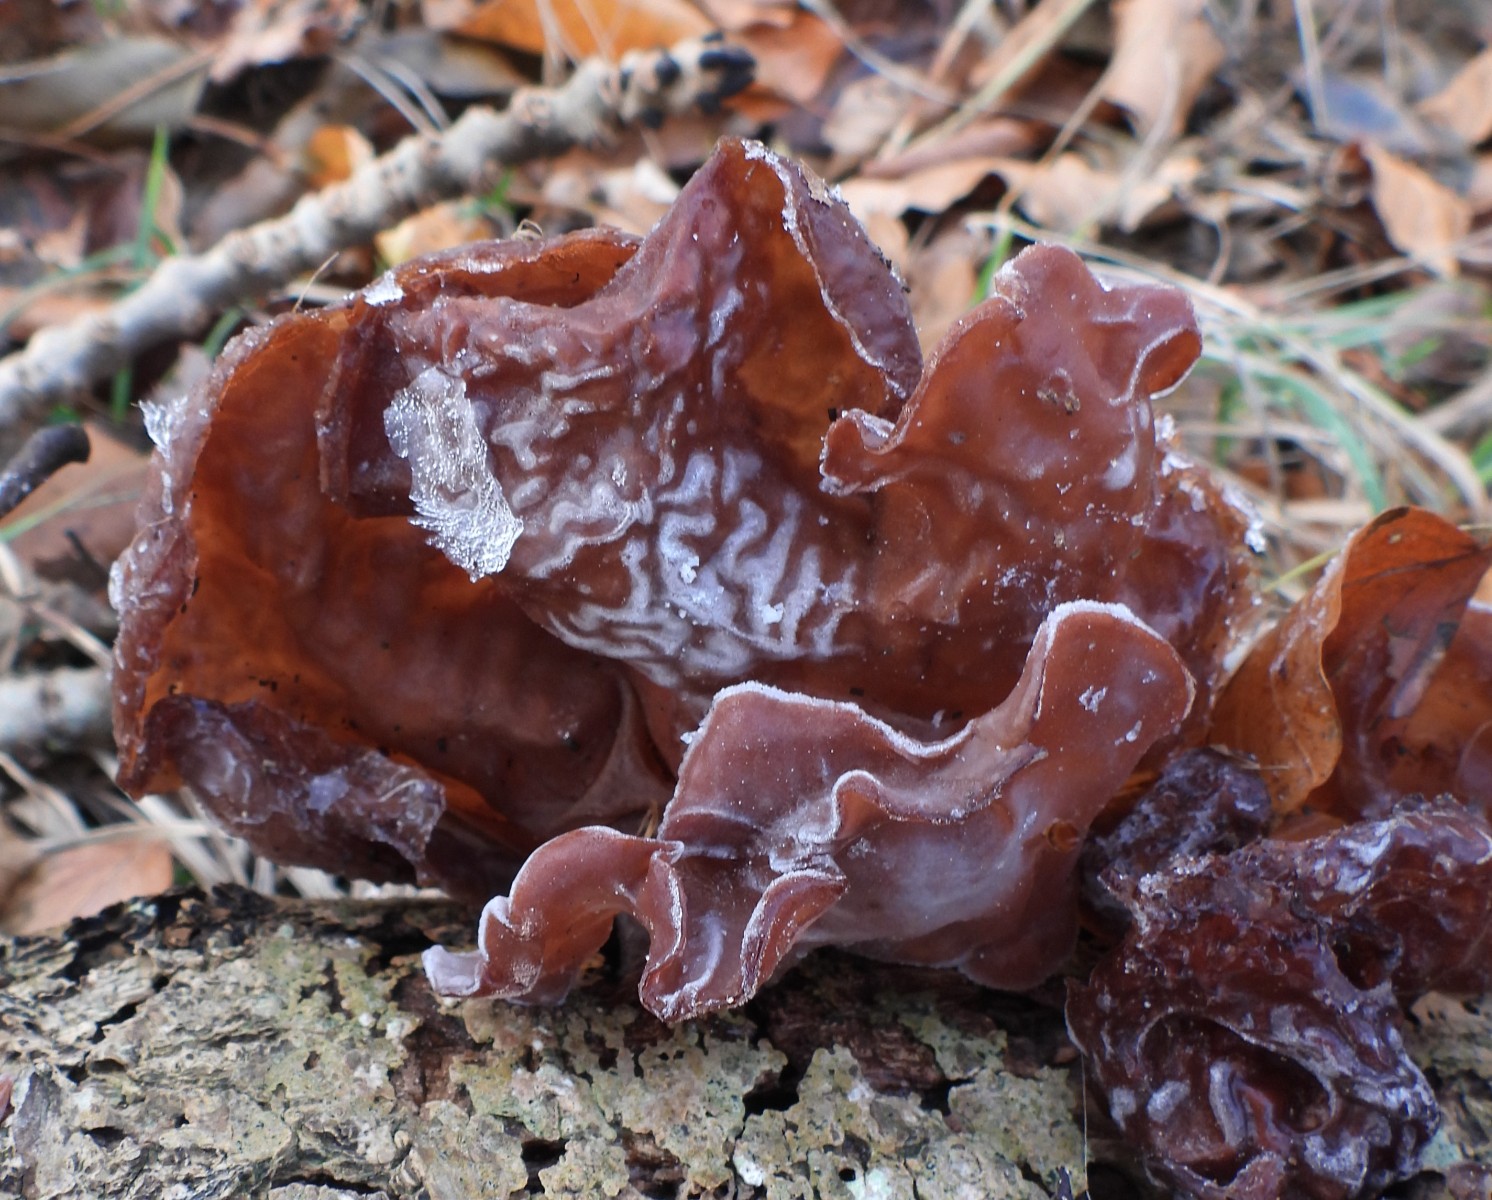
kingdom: Fungi
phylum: Basidiomycota
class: Agaricomycetes
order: Auriculariales
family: Auriculariaceae
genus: Auricularia
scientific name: Auricularia auricula-judae
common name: almindelig judasøre
